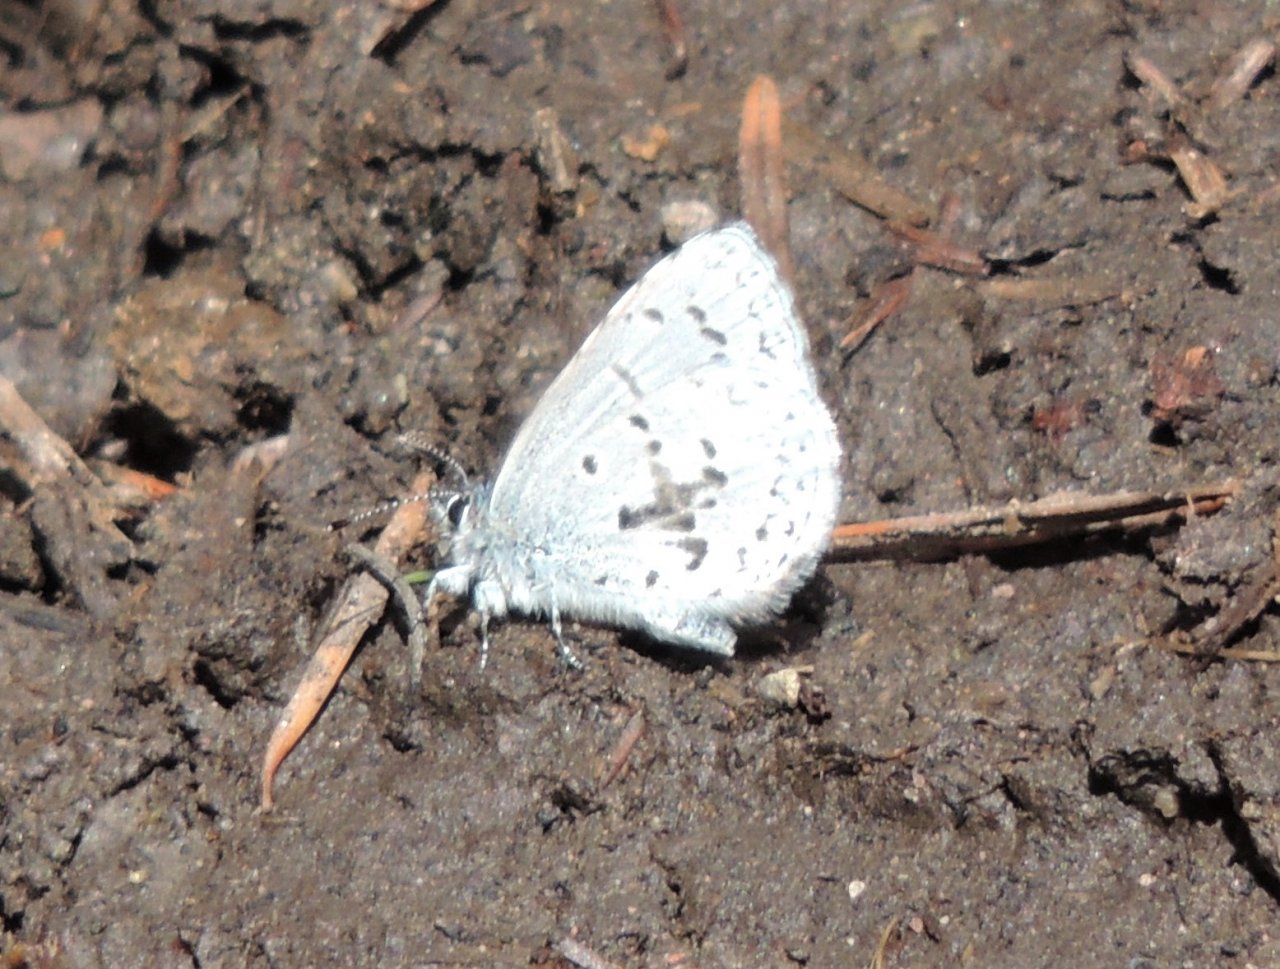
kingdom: Animalia
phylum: Arthropoda
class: Insecta
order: Lepidoptera
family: Lycaenidae
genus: Celastrina
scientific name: Celastrina ladon
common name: Echo Azure
